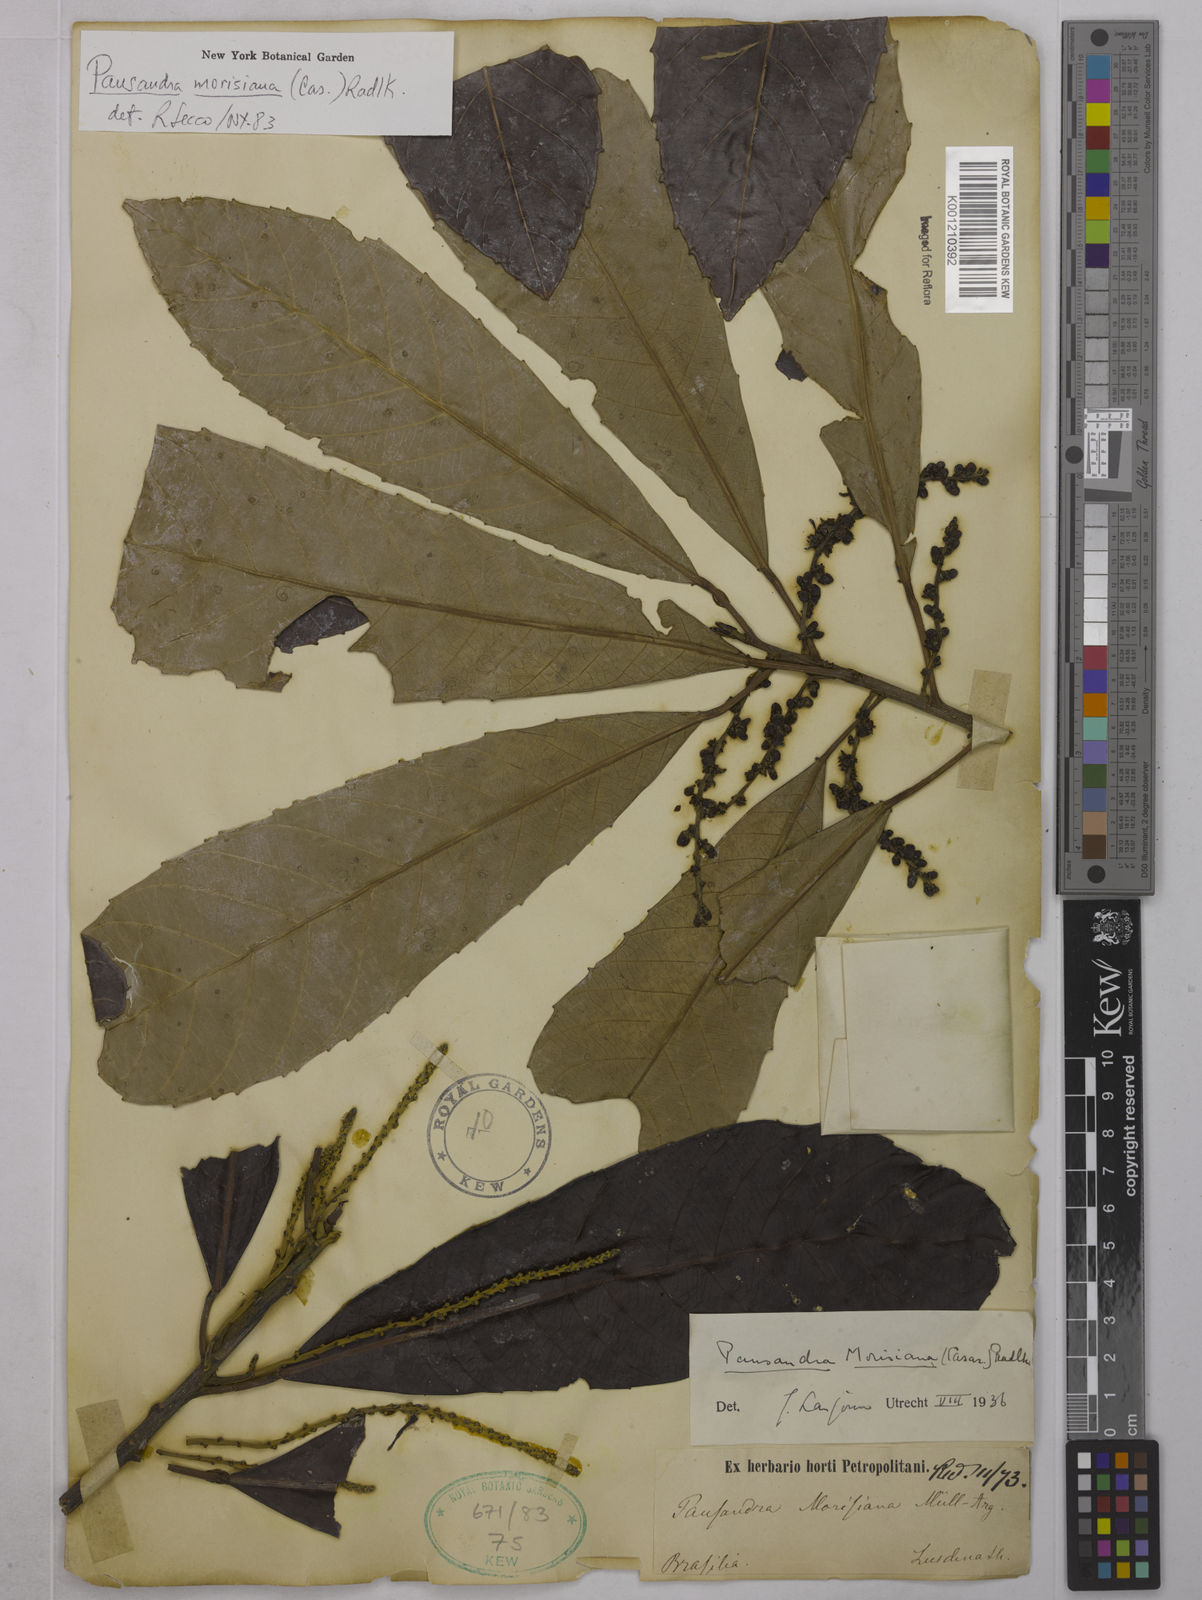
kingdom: Plantae
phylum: Tracheophyta
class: Magnoliopsida
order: Malpighiales
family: Euphorbiaceae
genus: Pausandra
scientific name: Pausandra morisiana
